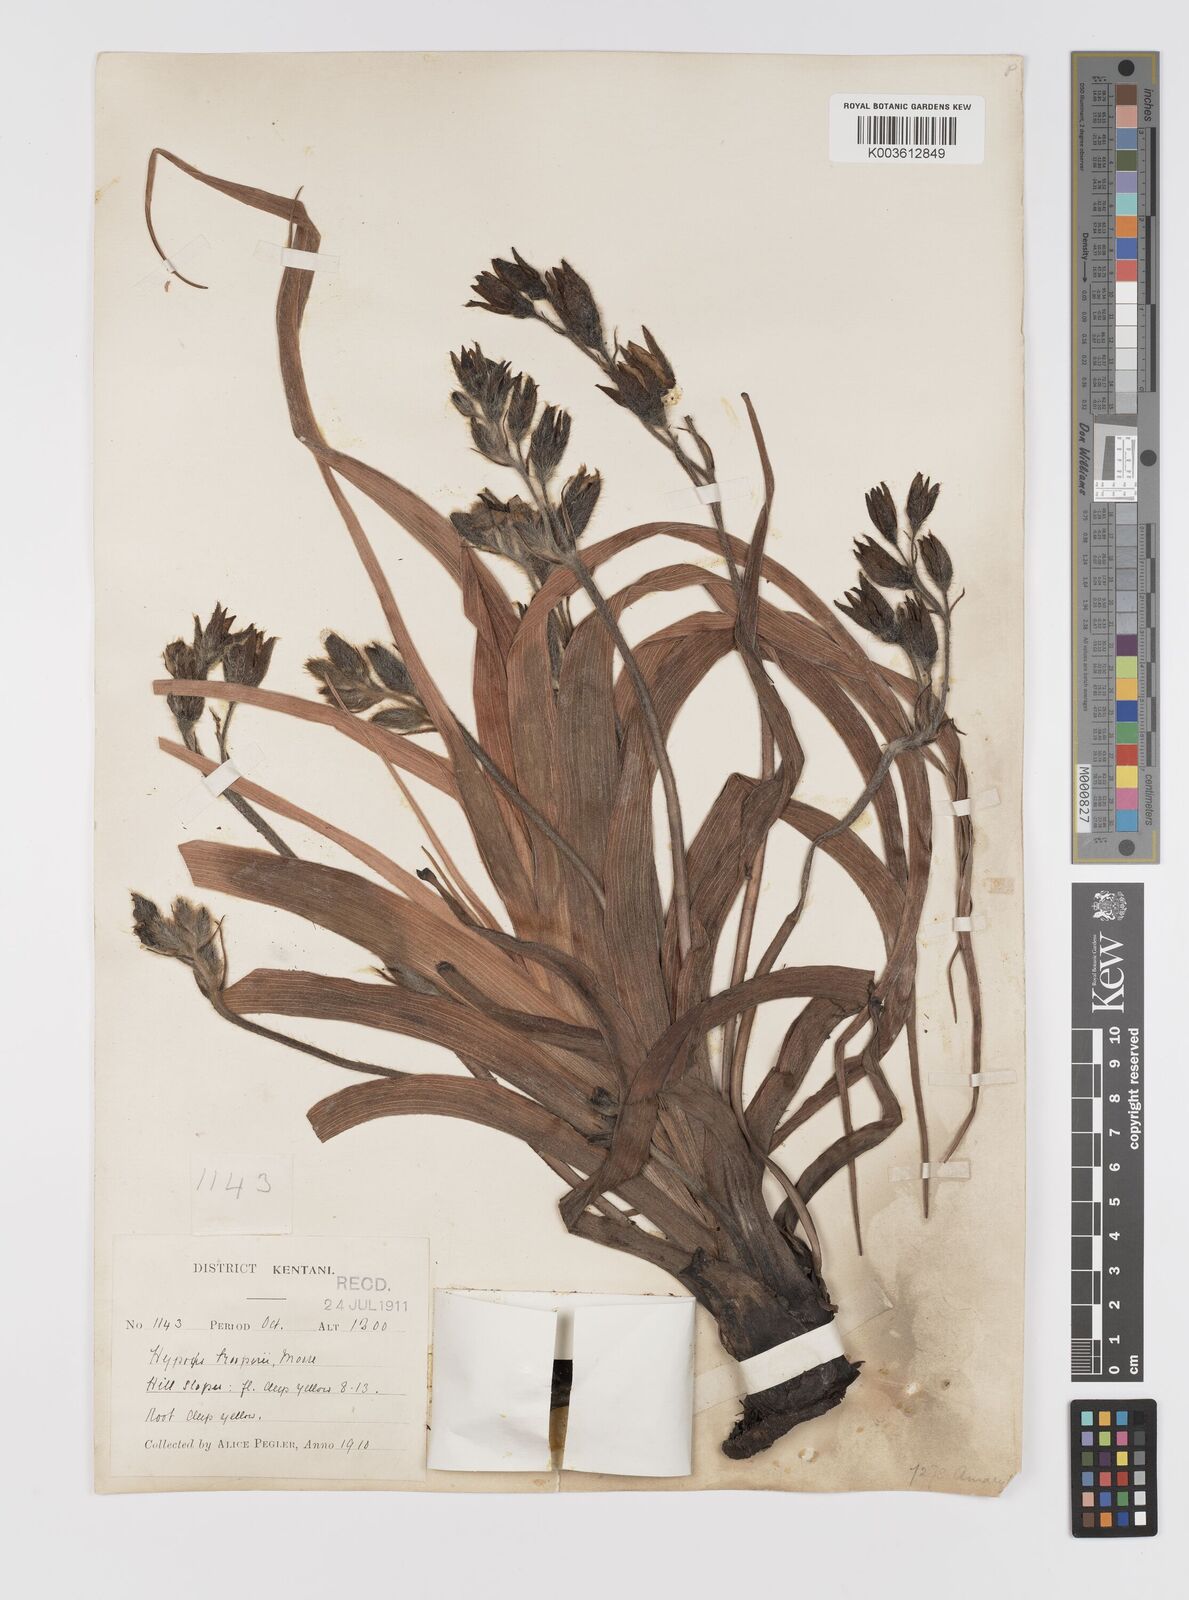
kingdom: Plantae
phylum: Tracheophyta
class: Liliopsida
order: Asparagales
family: Hypoxidaceae
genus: Hypoxis
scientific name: Hypoxis hemerocallidea
